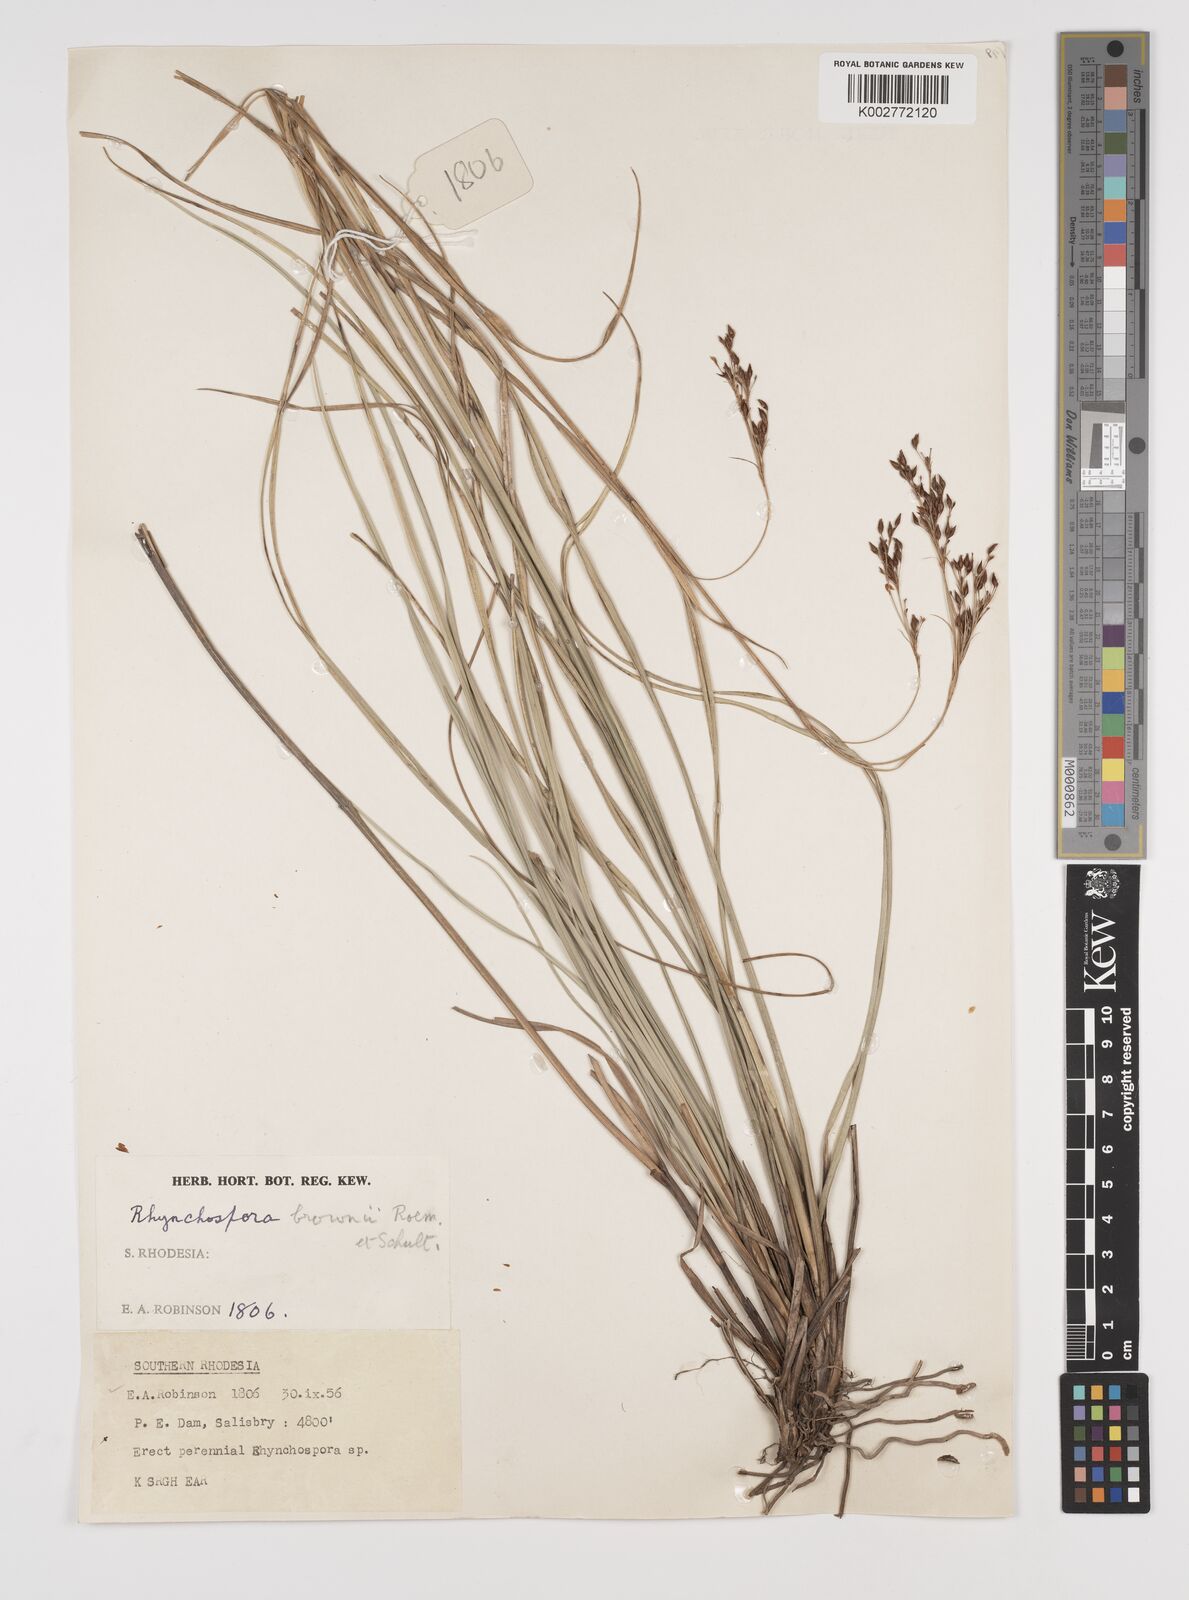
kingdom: Plantae
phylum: Tracheophyta
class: Liliopsida
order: Poales
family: Cyperaceae
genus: Rhynchospora
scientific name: Rhynchospora rugosa
